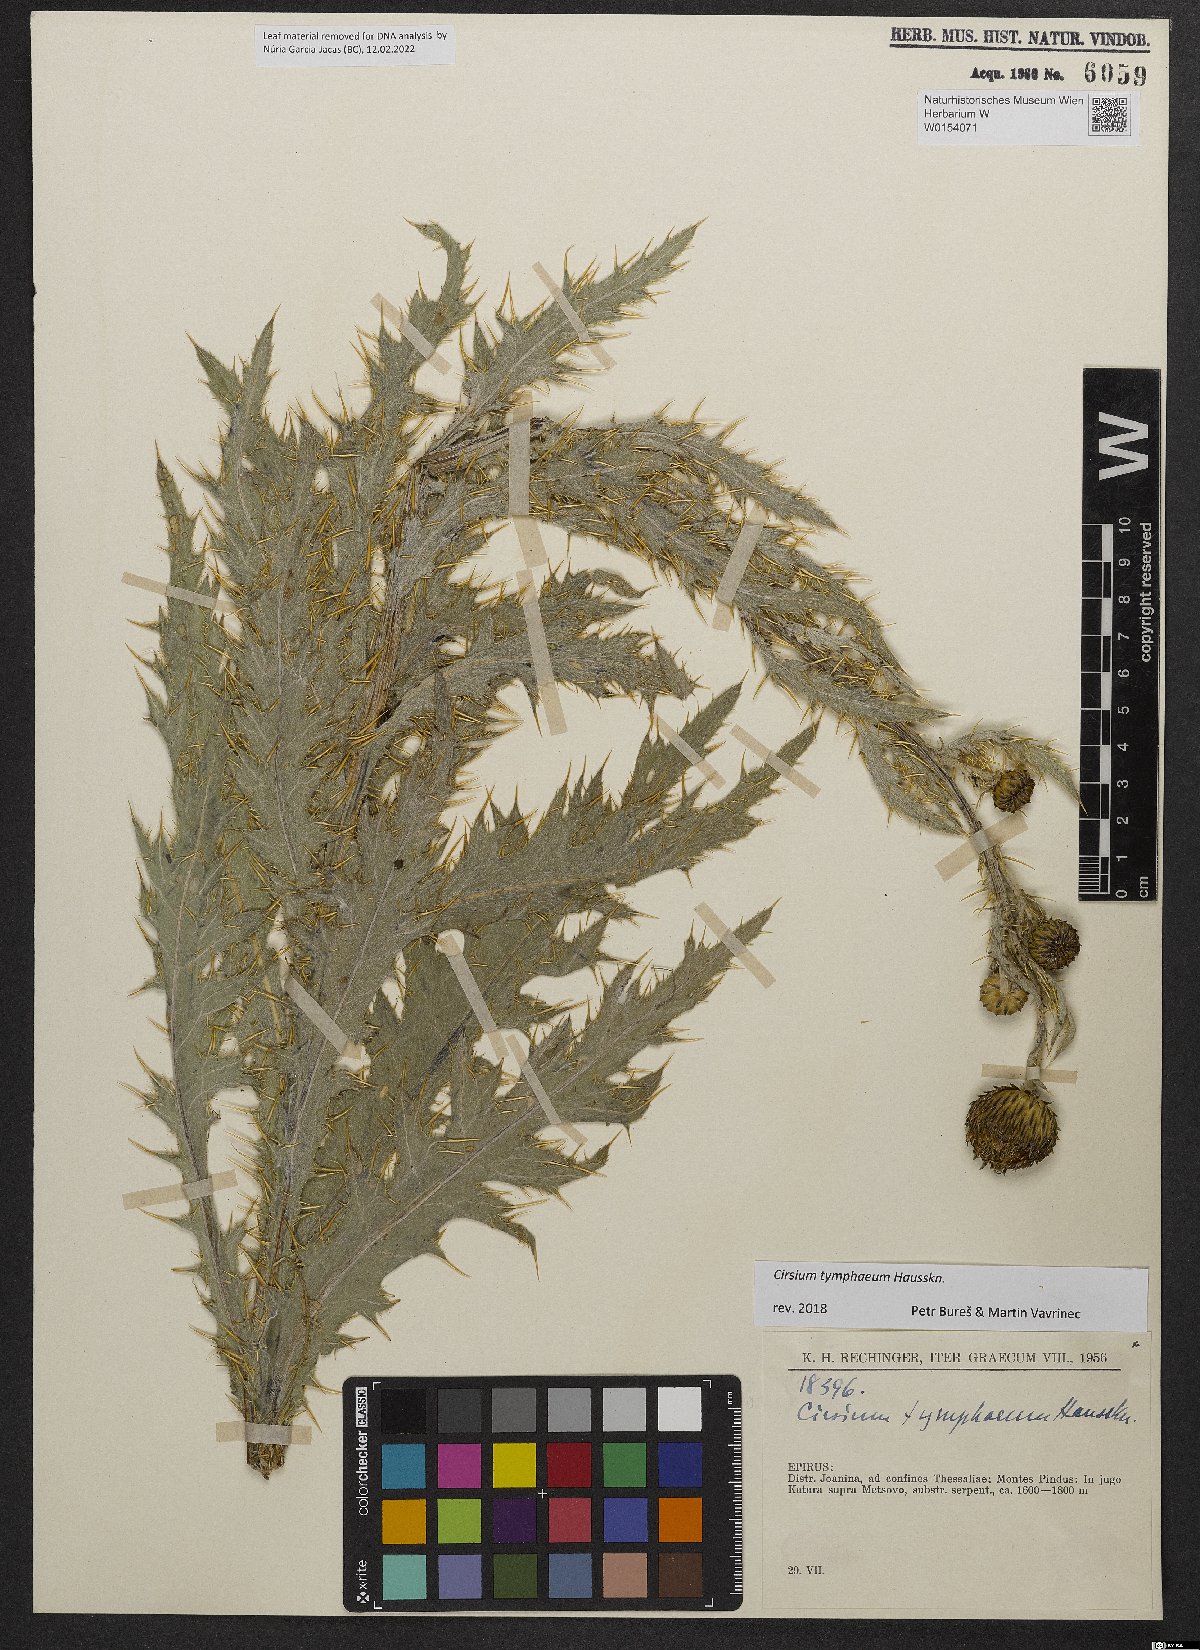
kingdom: Plantae
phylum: Tracheophyta
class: Magnoliopsida
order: Asterales
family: Asteraceae
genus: Cirsium
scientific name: Cirsium wallichii
